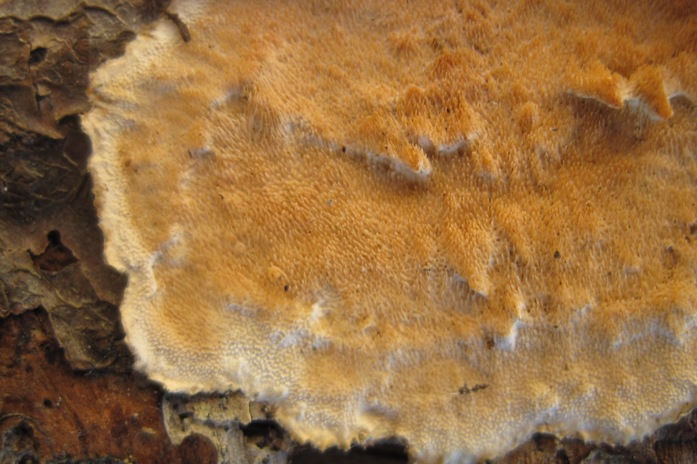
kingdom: Fungi
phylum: Basidiomycota
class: Agaricomycetes
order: Polyporales
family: Steccherinaceae
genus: Steccherinum
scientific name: Steccherinum ochraceum
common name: almindelig skønpig
